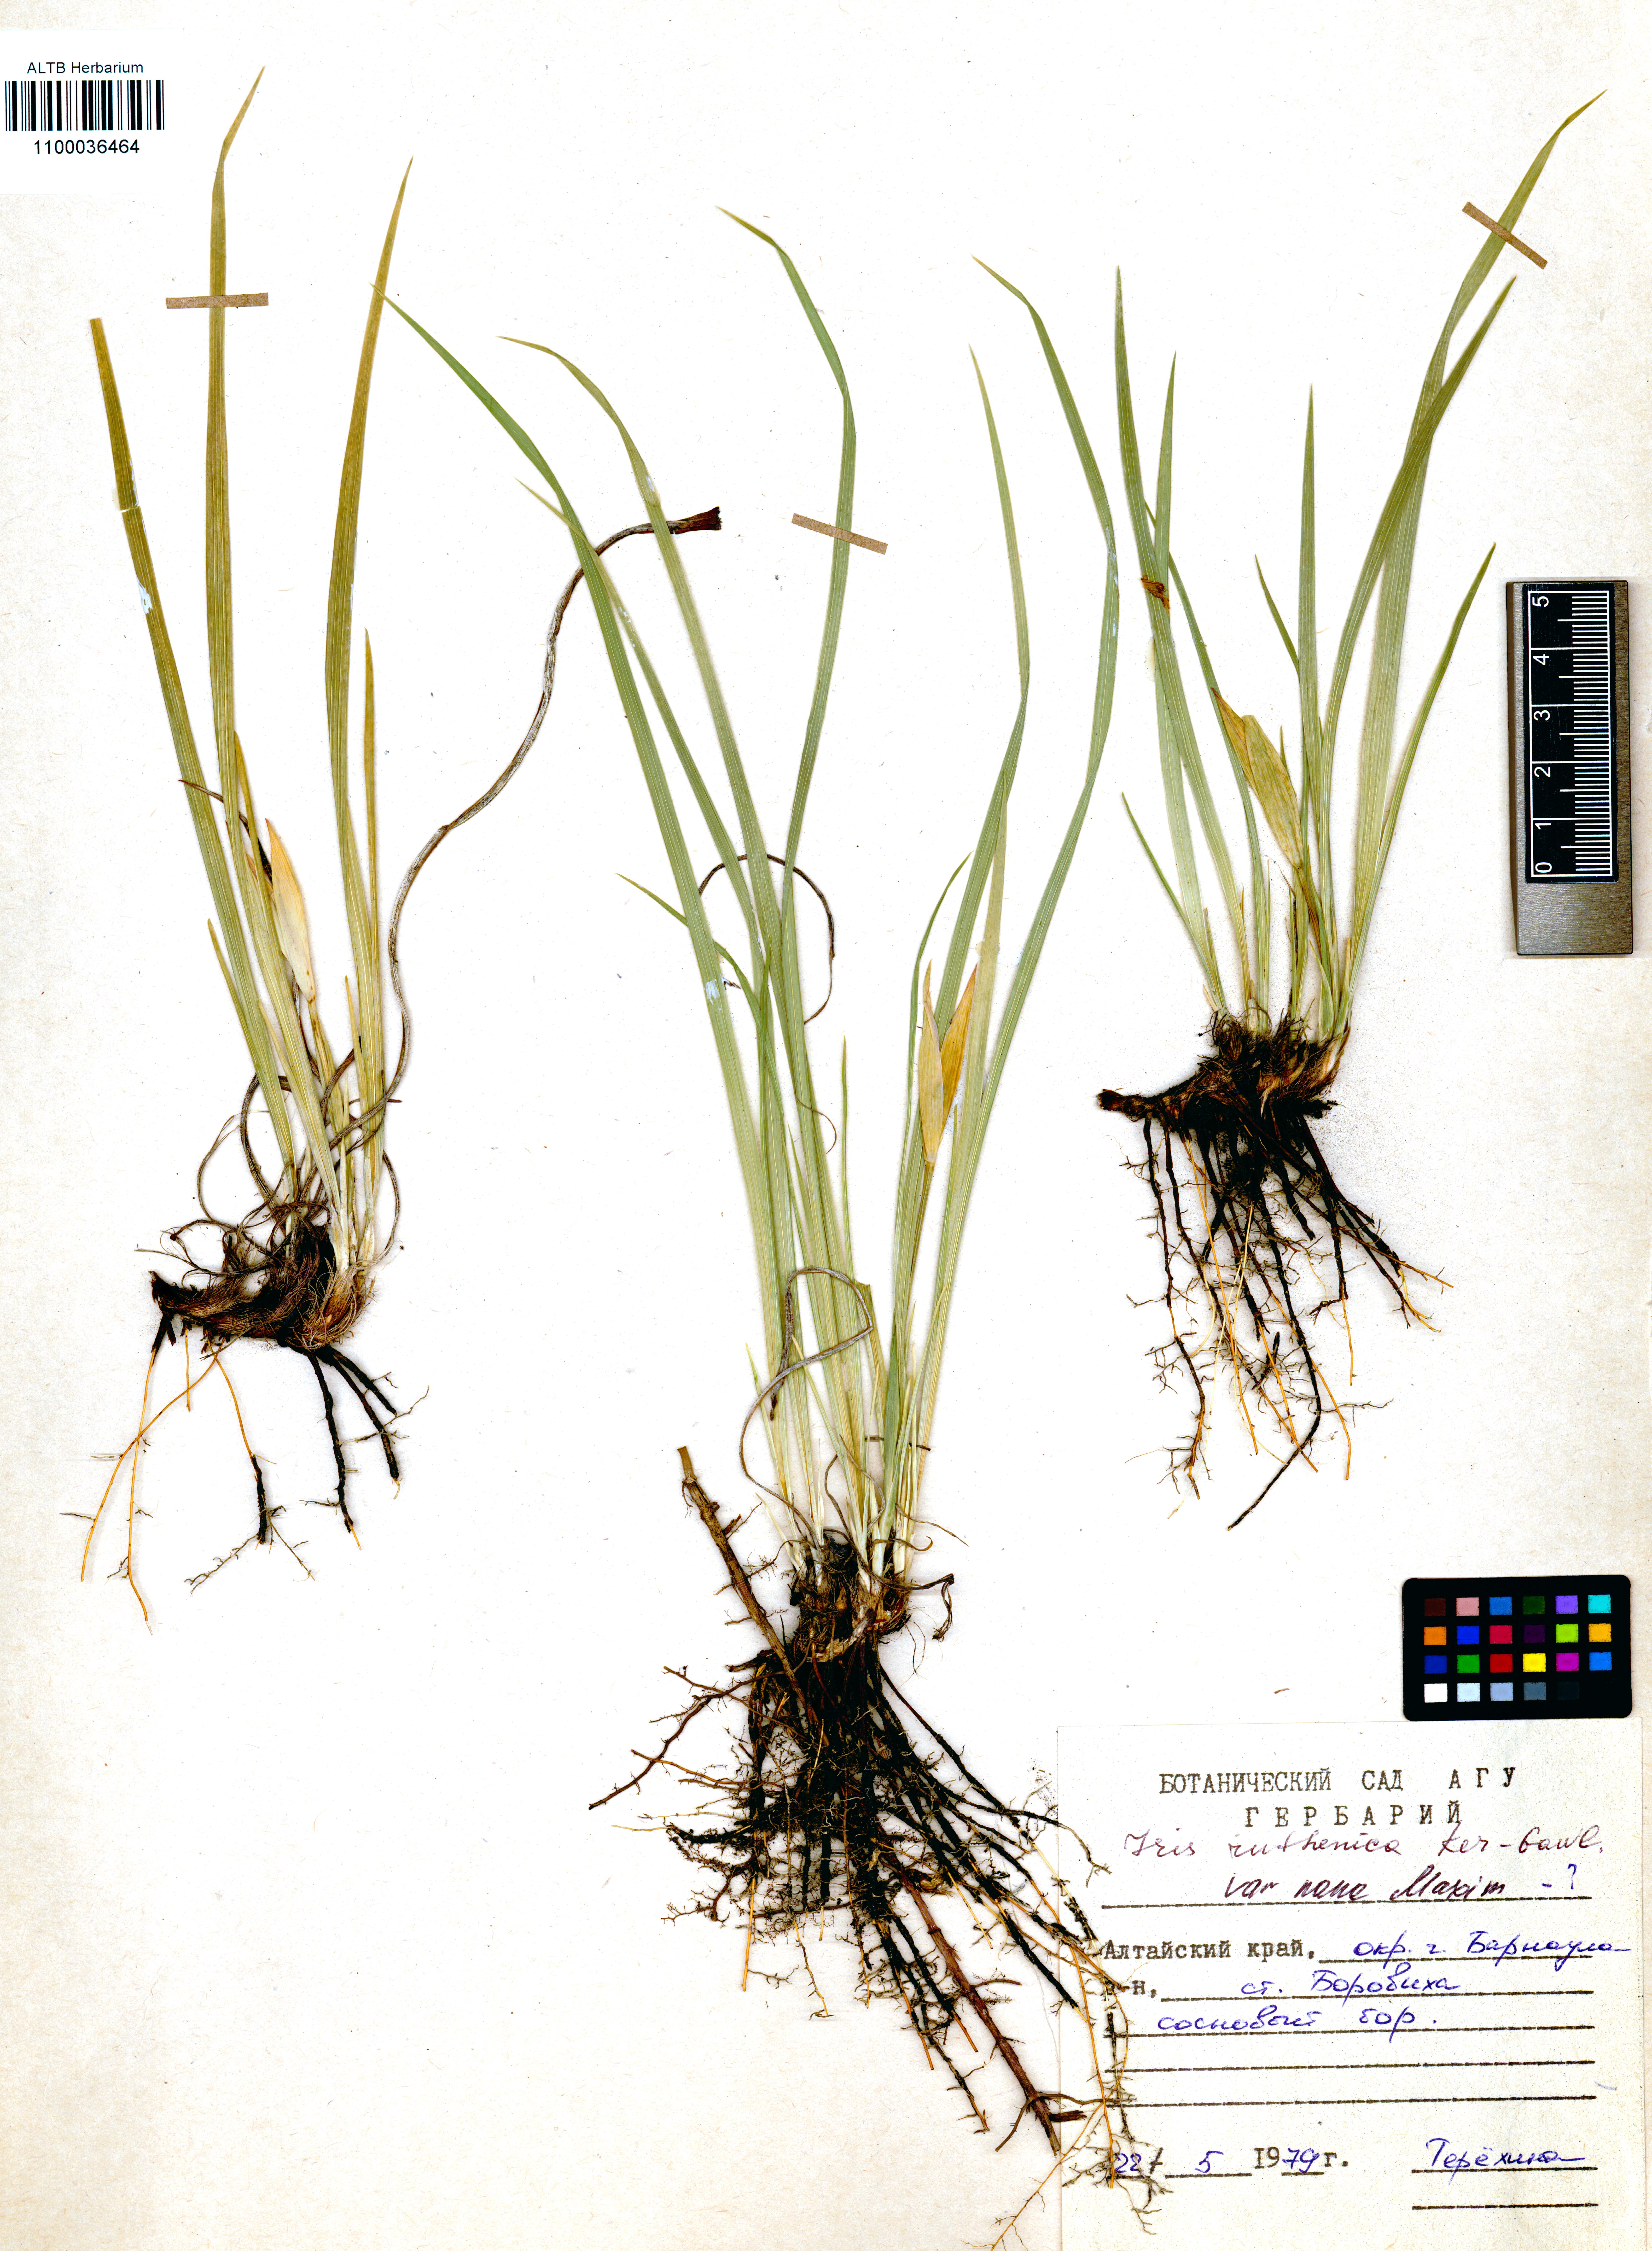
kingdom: Plantae
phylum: Tracheophyta
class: Liliopsida
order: Asparagales
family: Iridaceae
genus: Iris
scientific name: Iris ruthenica
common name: Purple-bract iris
